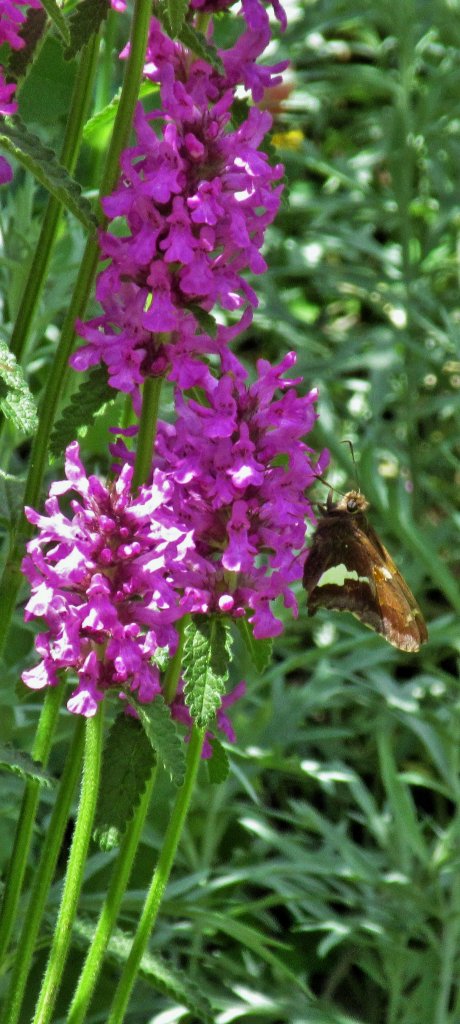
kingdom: Animalia
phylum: Arthropoda
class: Insecta
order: Lepidoptera
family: Hesperiidae
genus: Epargyreus
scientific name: Epargyreus clarus
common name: Silver-spotted Skipper
